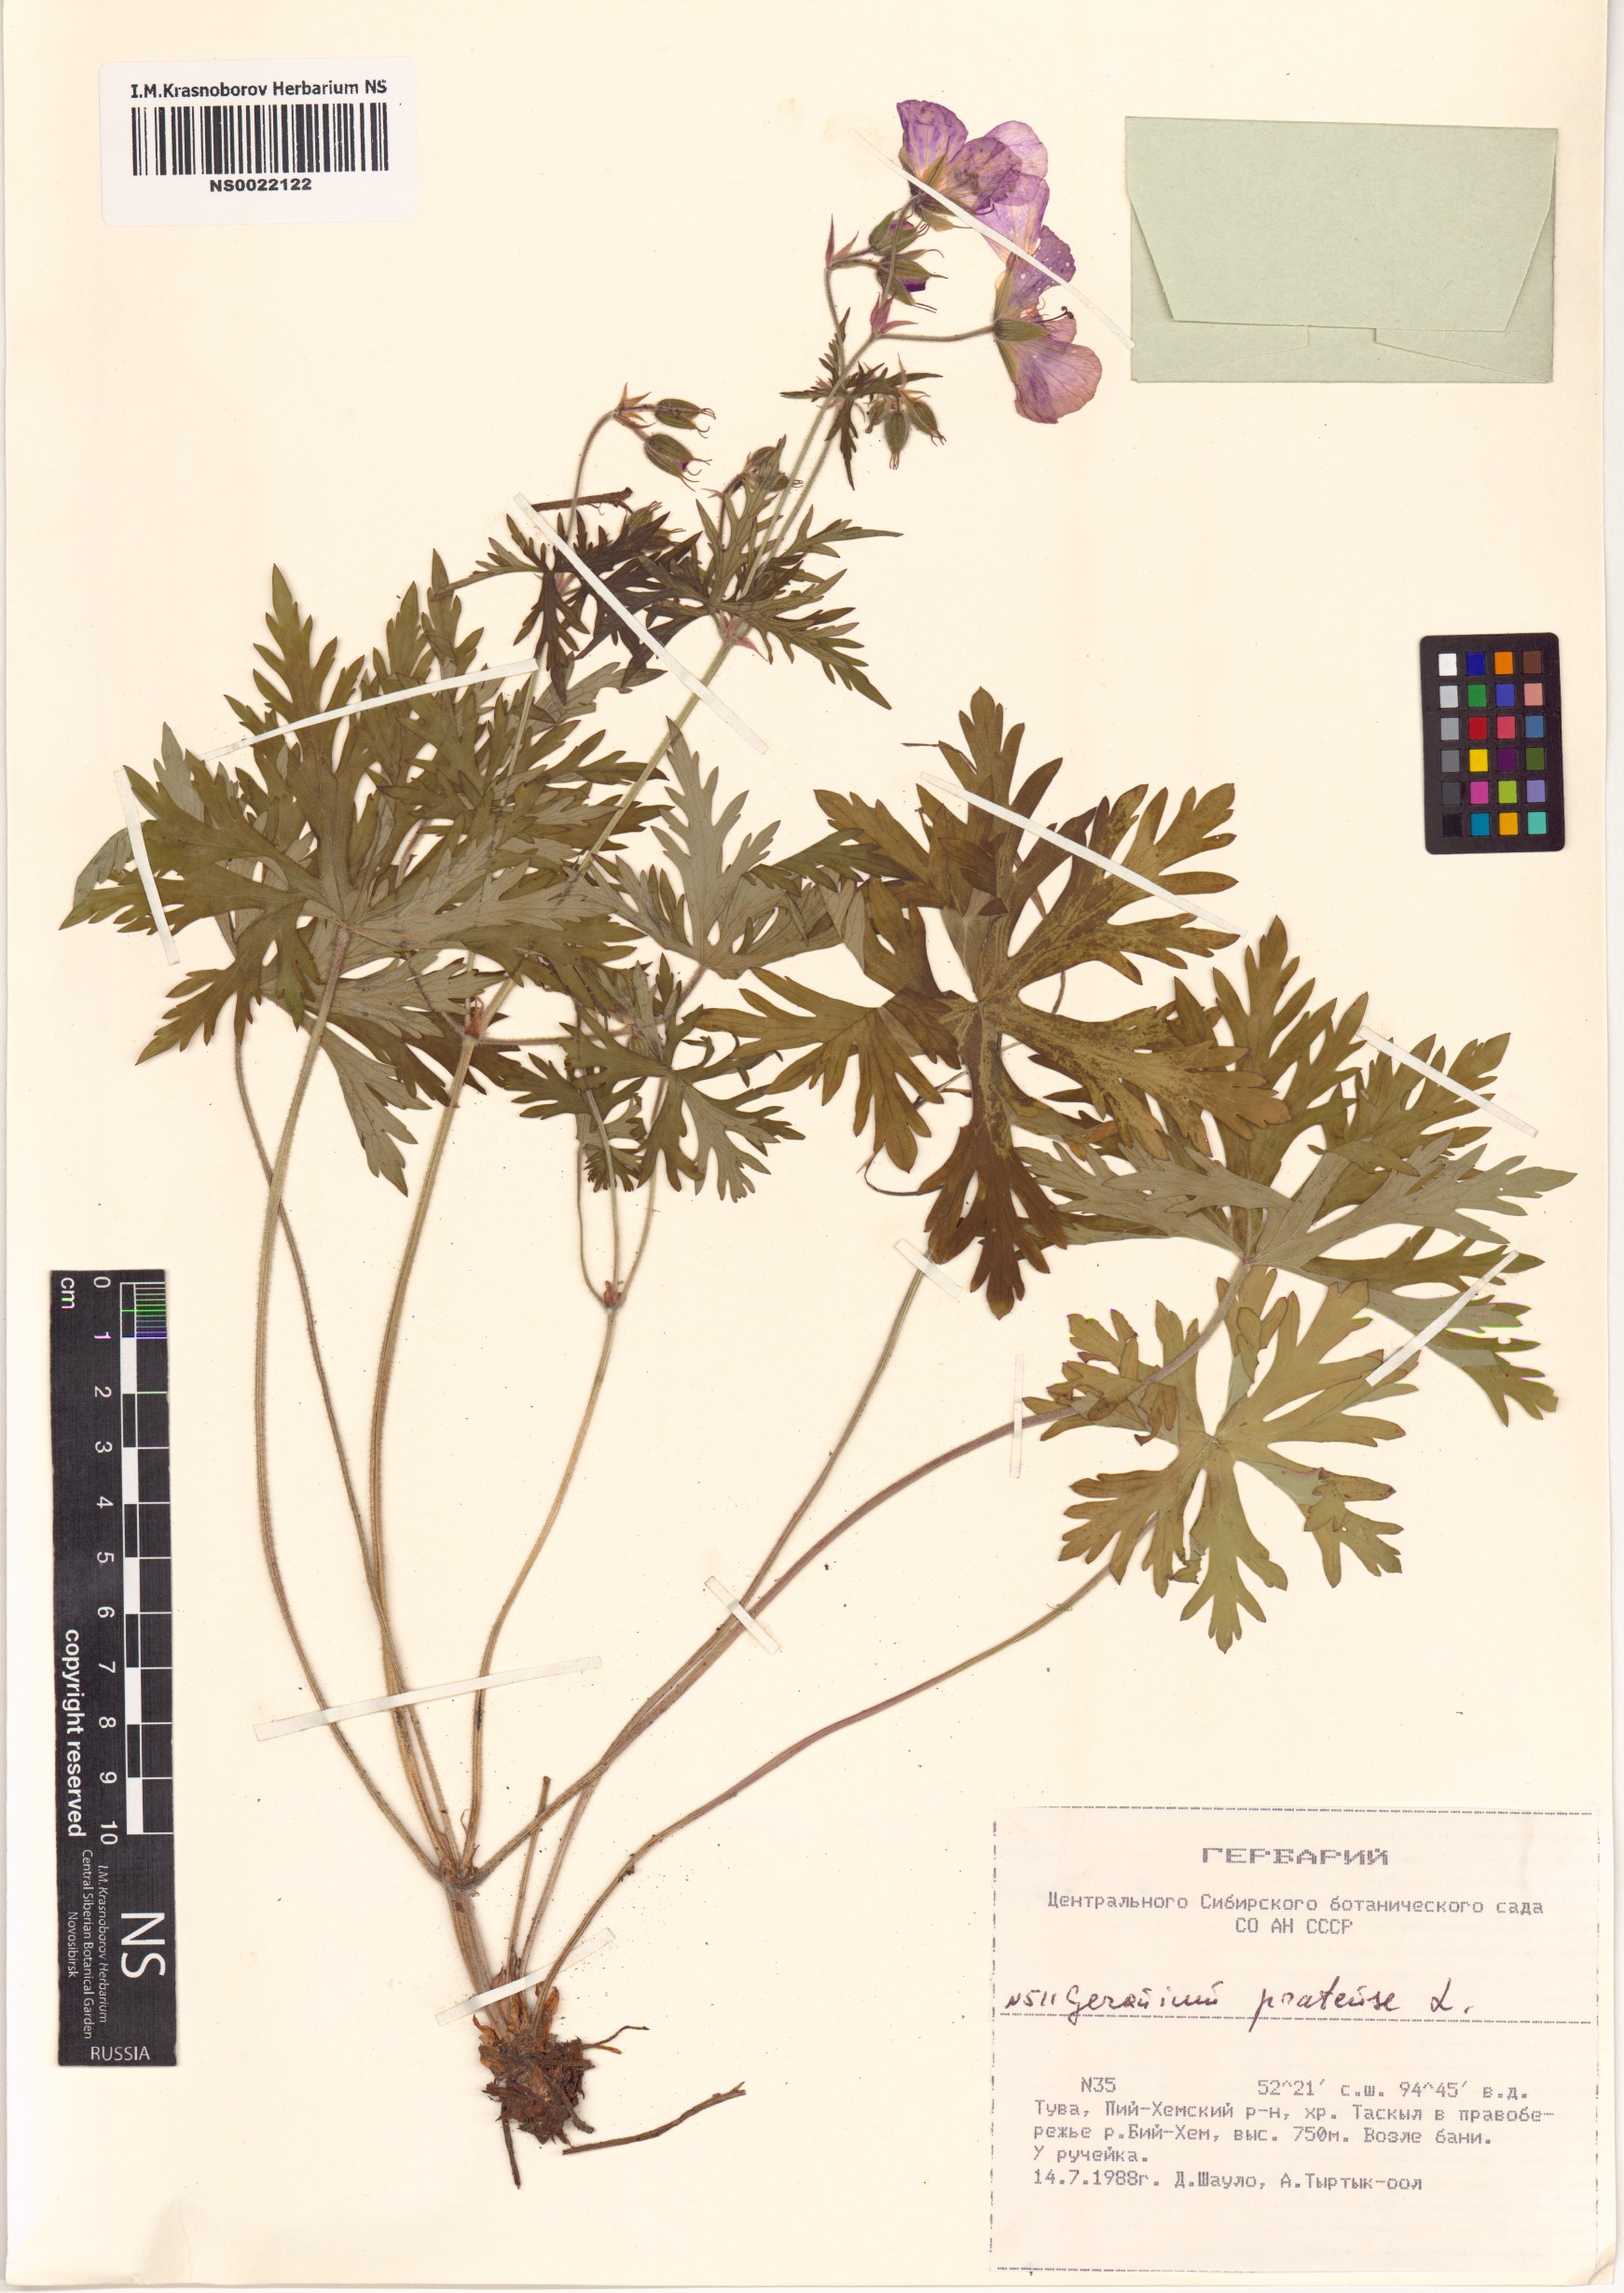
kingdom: Plantae
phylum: Tracheophyta
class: Magnoliopsida
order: Geraniales
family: Geraniaceae
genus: Geranium
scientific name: Geranium pratense
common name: Meadow crane's-bill
